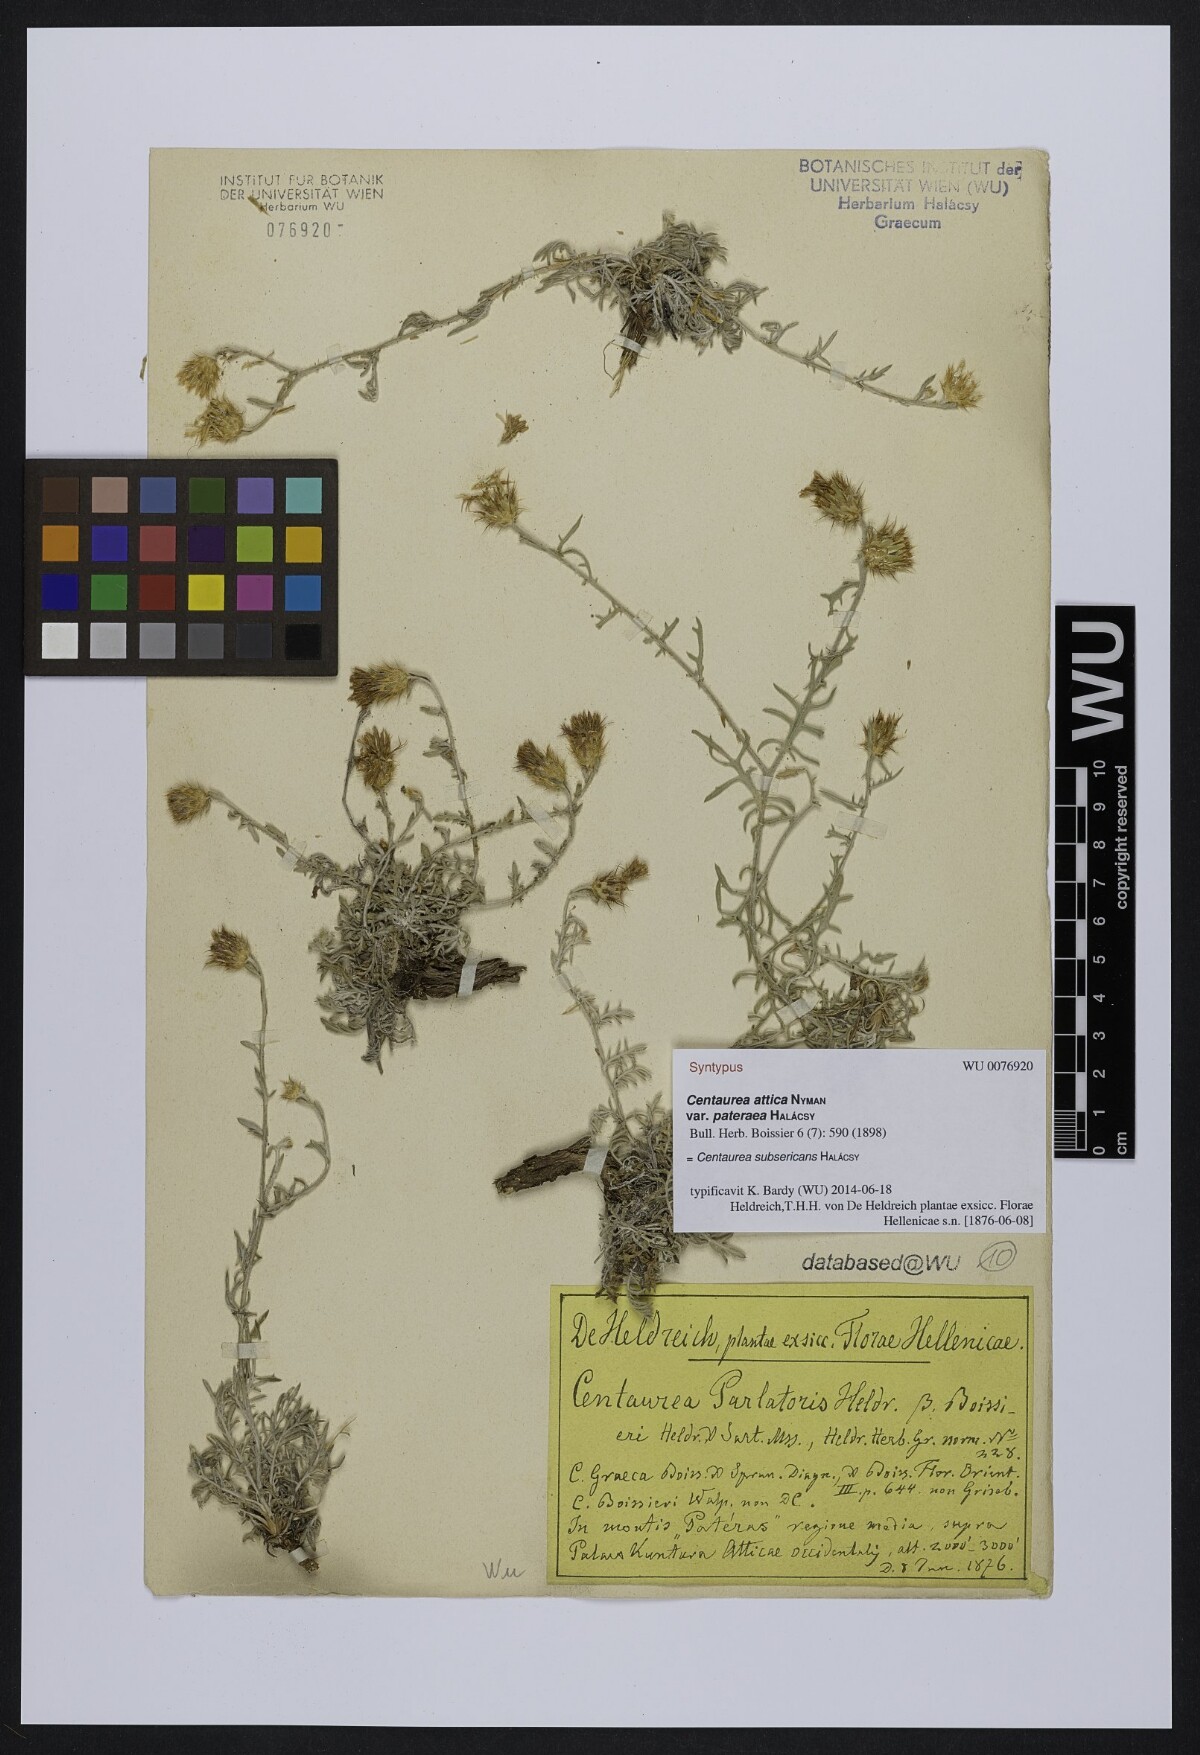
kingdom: Plantae
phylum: Tracheophyta
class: Magnoliopsida
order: Asterales
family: Asteraceae
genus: Centaurea
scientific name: Centaurea subsericans
